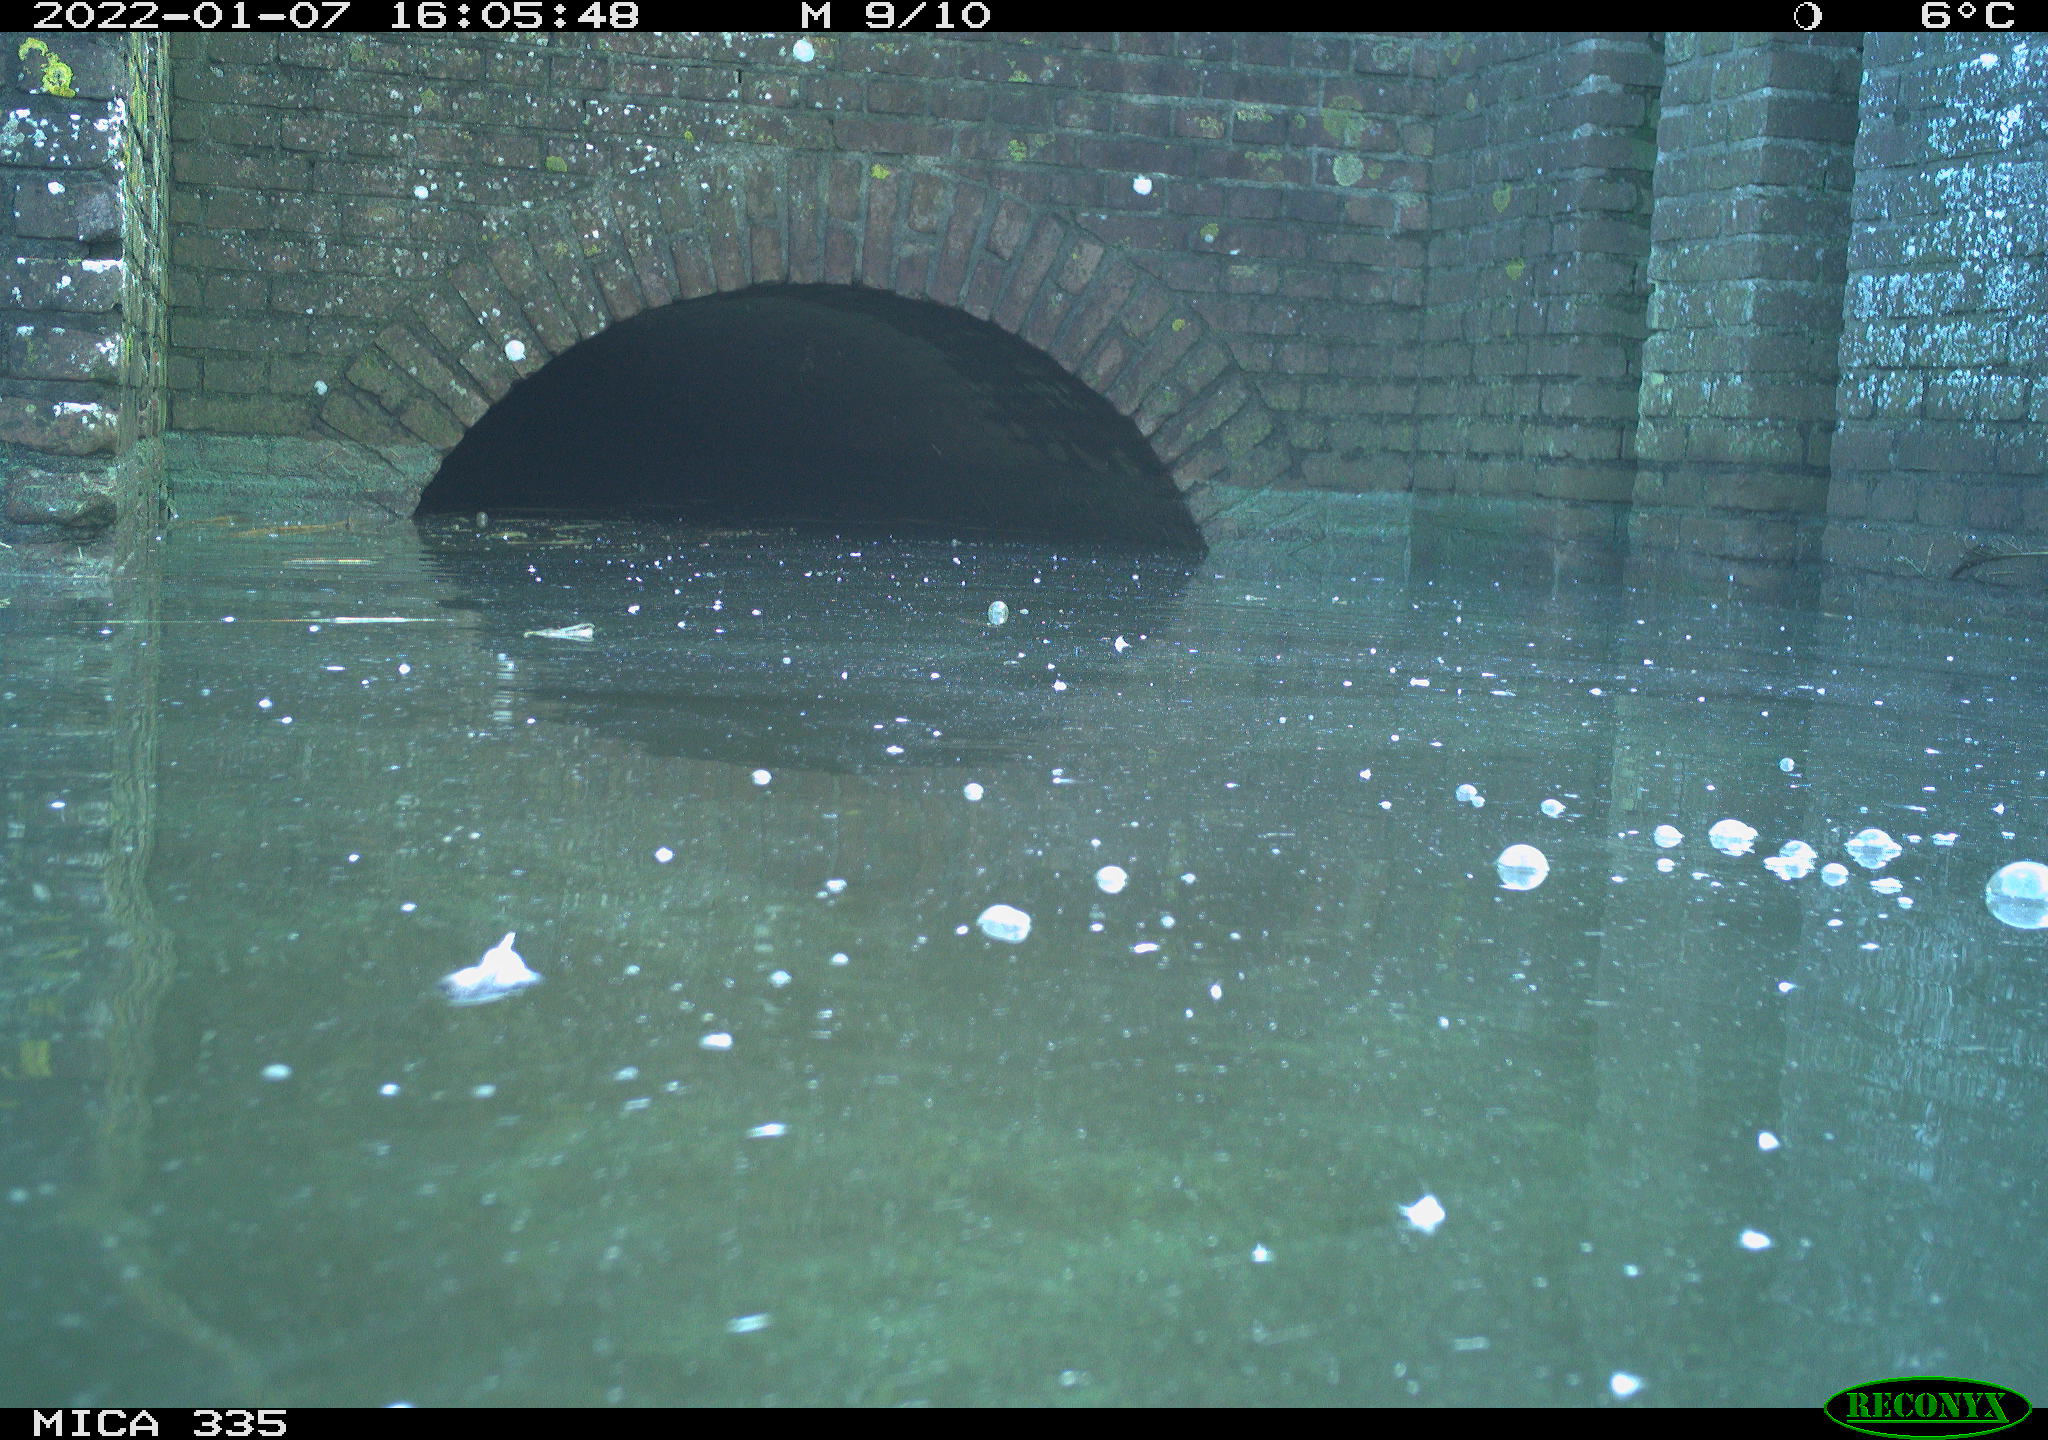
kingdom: Animalia
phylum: Chordata
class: Aves
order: Suliformes
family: Phalacrocoracidae
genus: Phalacrocorax
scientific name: Phalacrocorax carbo
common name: Great cormorant
